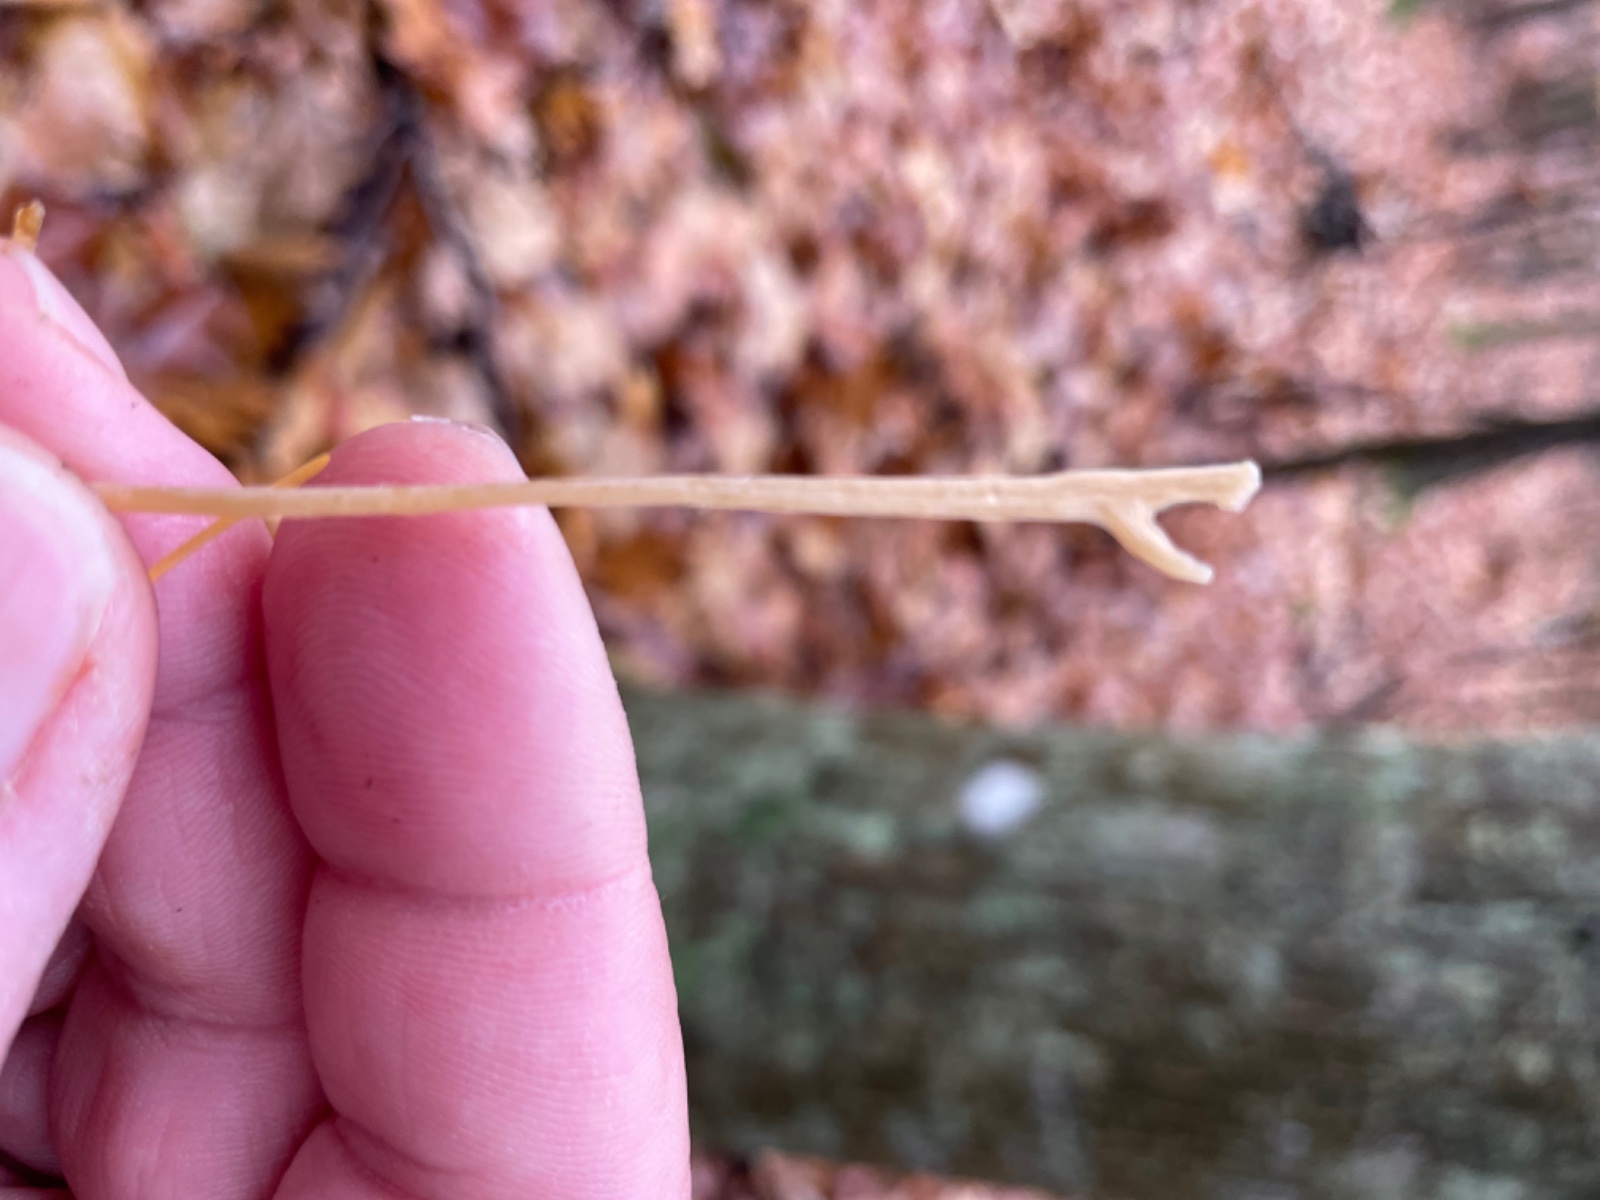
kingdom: Fungi
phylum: Basidiomycota
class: Agaricomycetes
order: Agaricales
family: Typhulaceae
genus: Macrotyphula
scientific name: Macrotyphula
